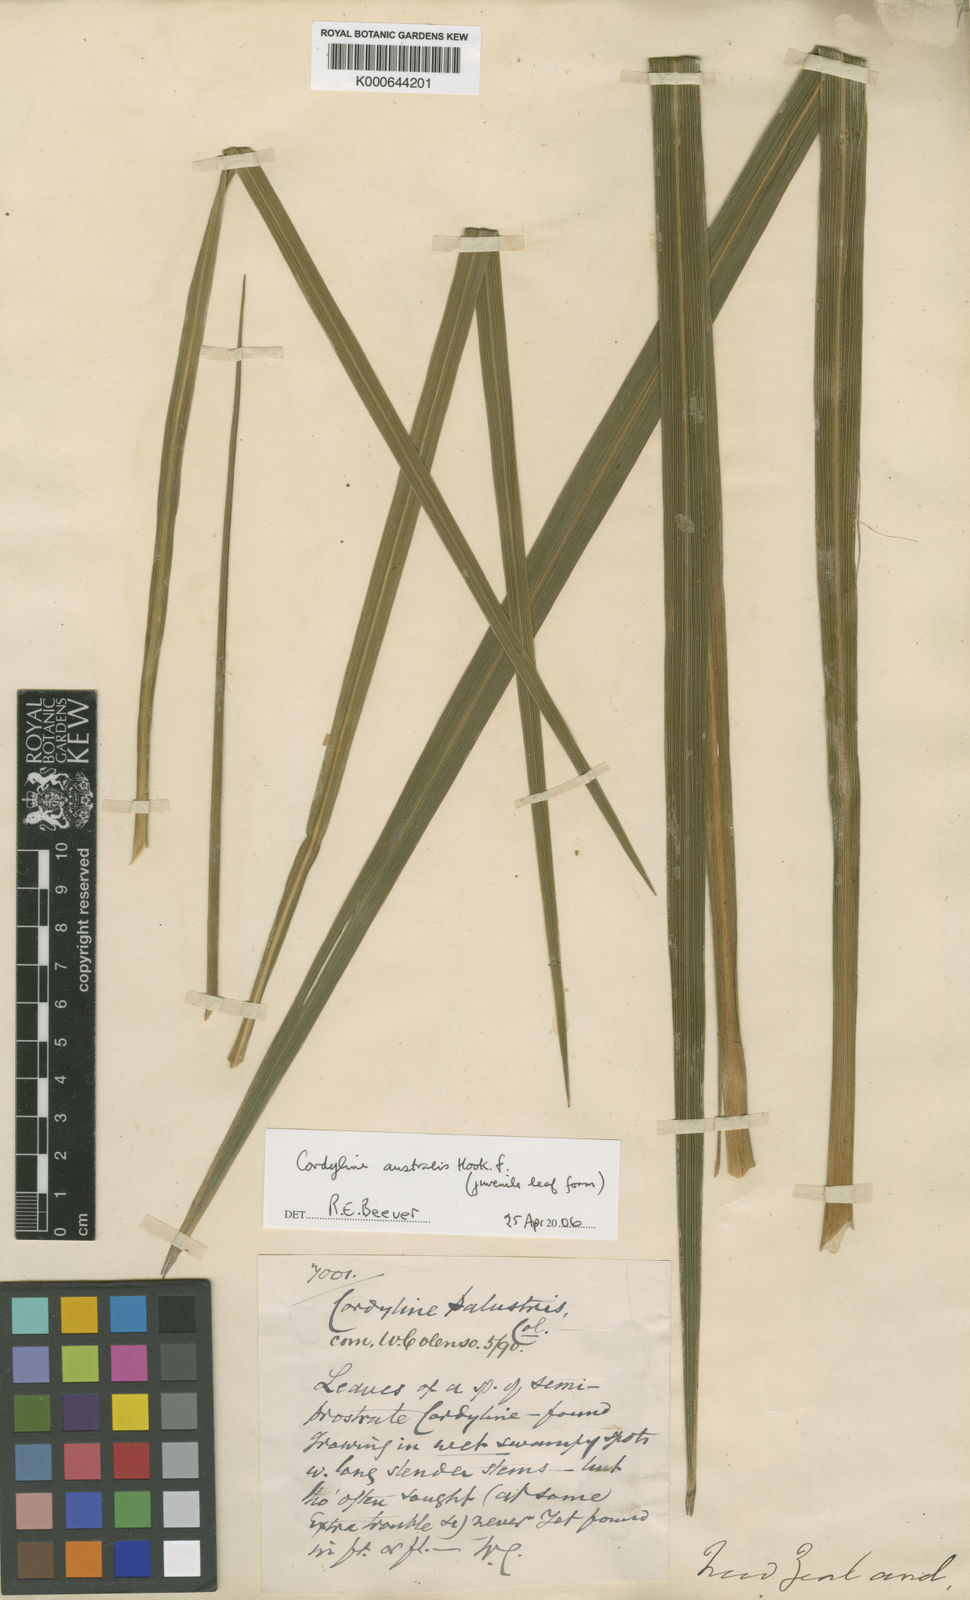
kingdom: Plantae
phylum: Tracheophyta
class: Liliopsida
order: Asparagales
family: Asparagaceae
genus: Cordyline
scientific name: Cordyline pumilio
